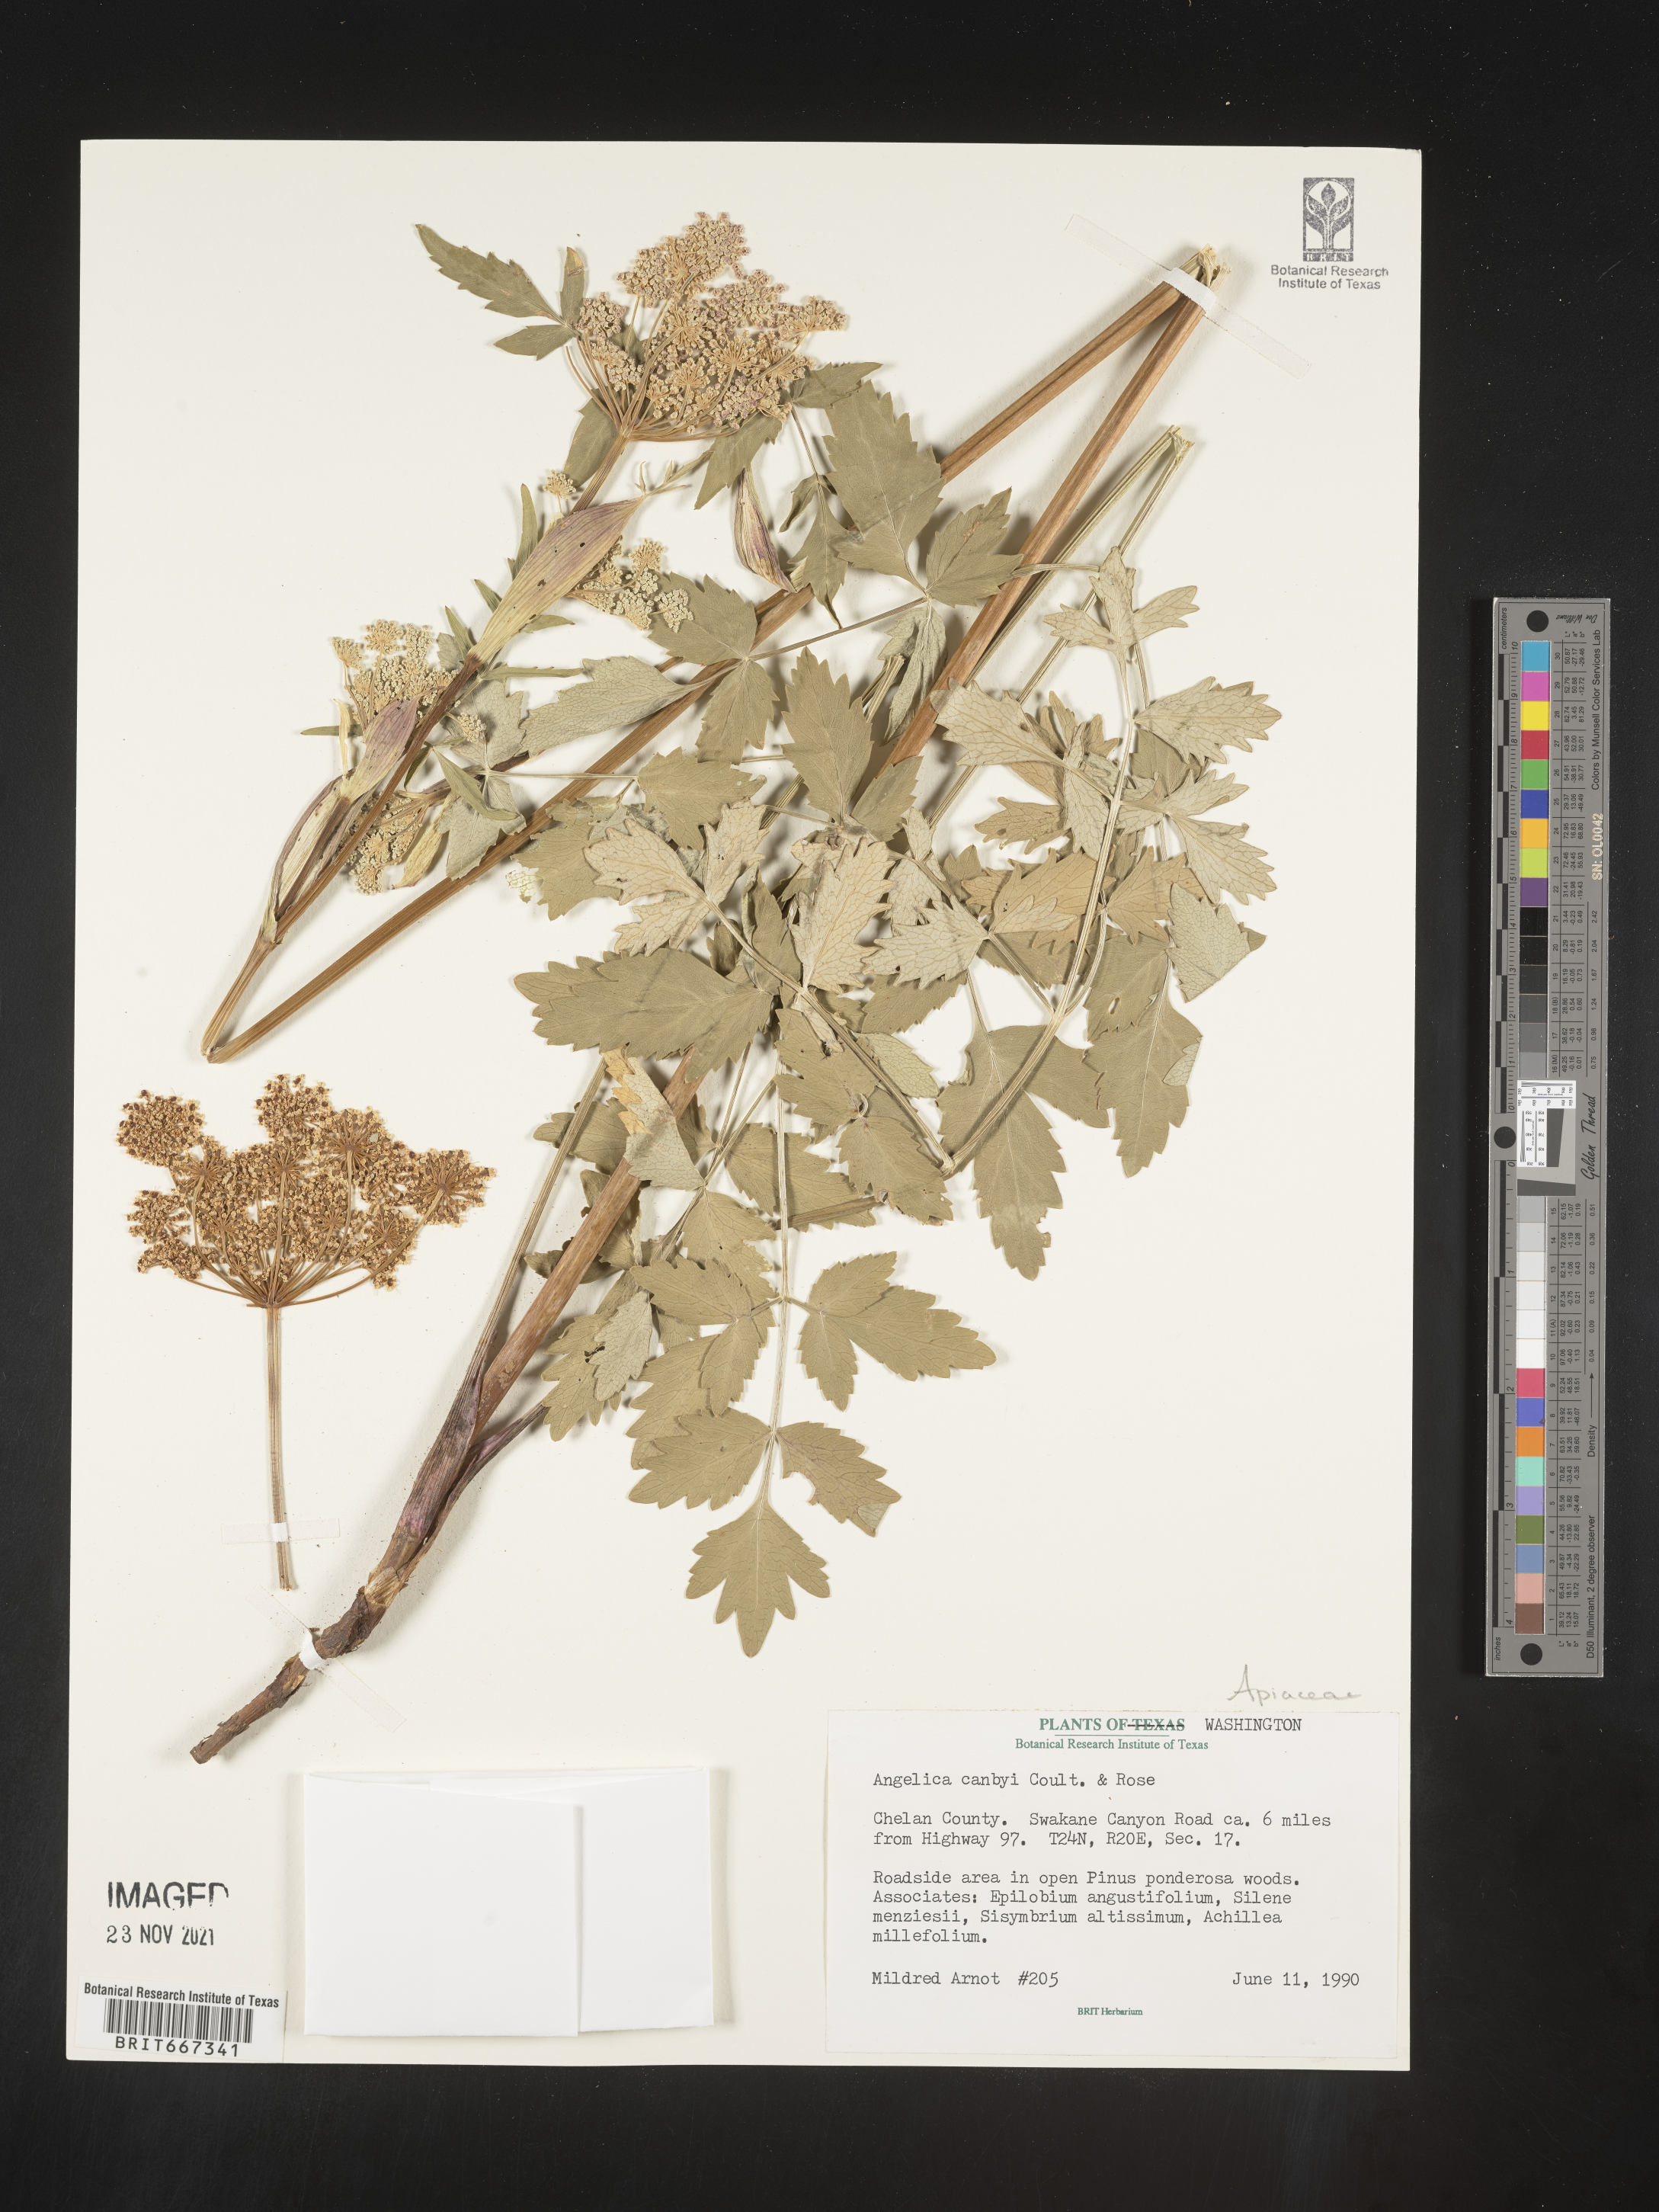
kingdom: Plantae
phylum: Tracheophyta
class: Magnoliopsida
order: Apiales
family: Apiaceae
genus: Angelica
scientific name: Angelica
